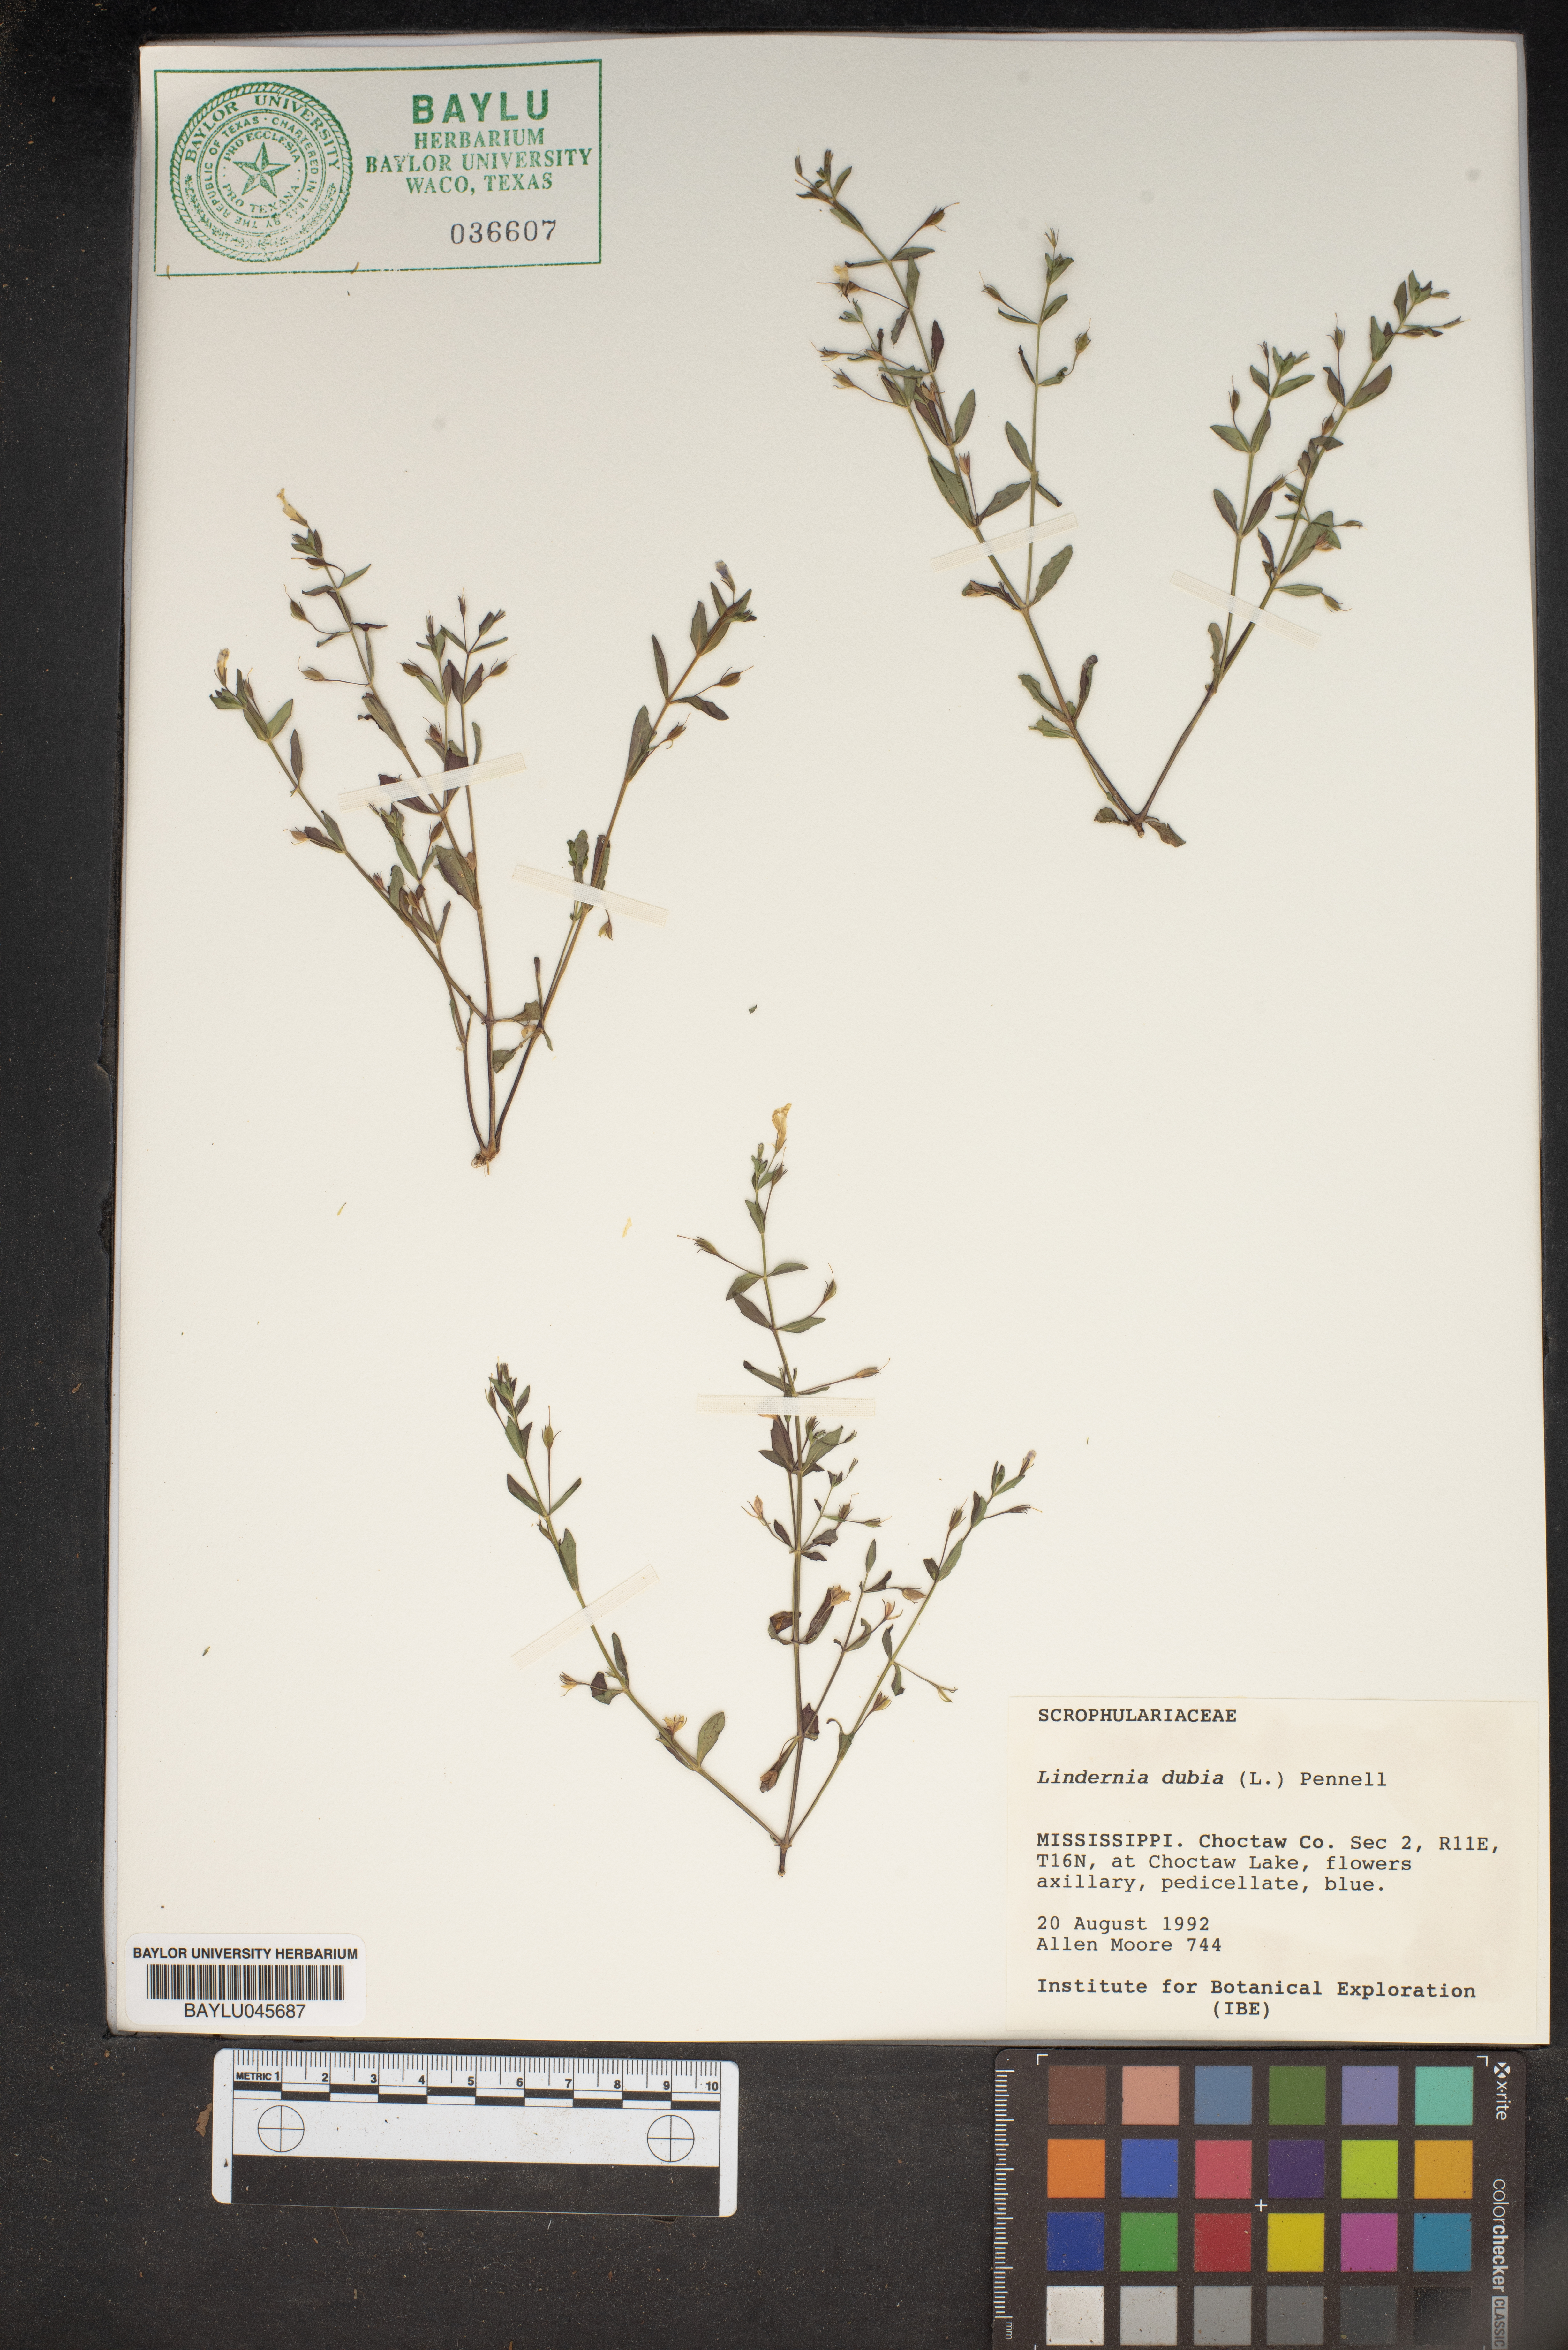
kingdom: Plantae
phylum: Tracheophyta
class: Magnoliopsida
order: Lamiales
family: Linderniaceae
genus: Lindernia
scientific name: Lindernia dubia
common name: Annual false pimpernel
